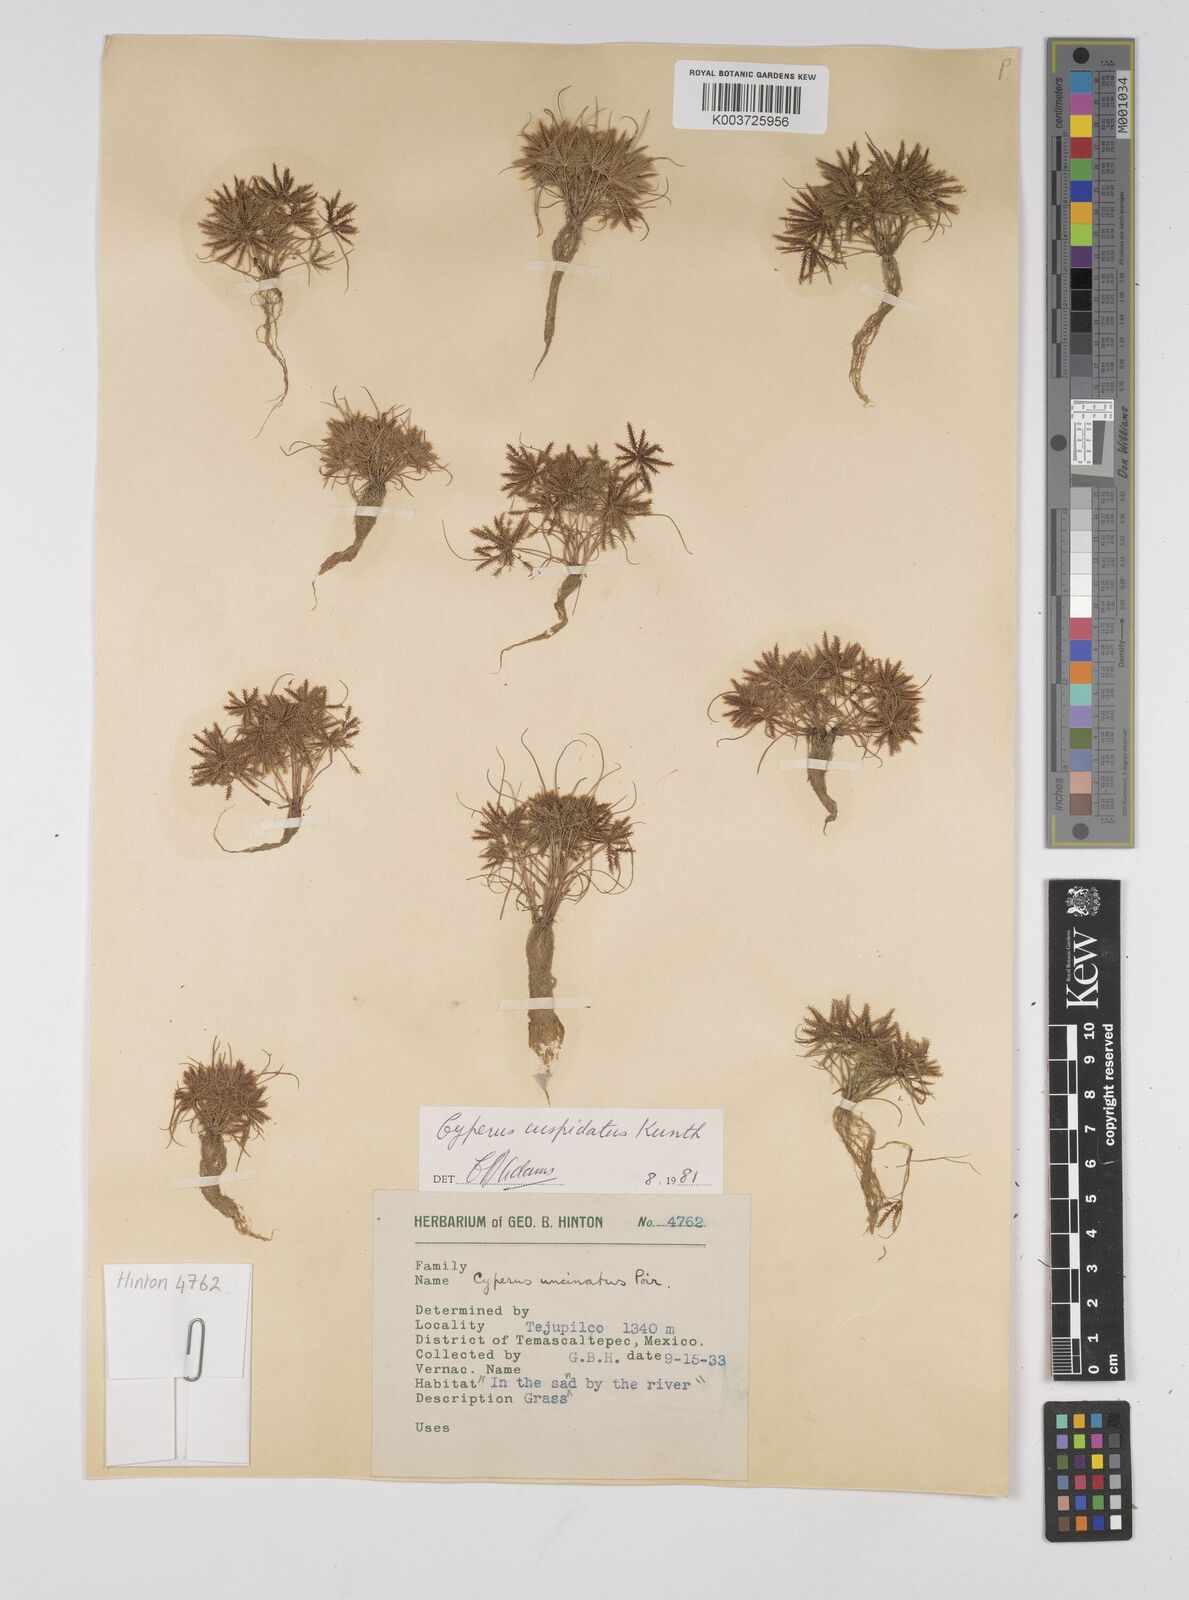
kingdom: Plantae
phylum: Tracheophyta
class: Liliopsida
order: Poales
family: Cyperaceae
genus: Cyperus
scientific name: Cyperus cuspidatus
